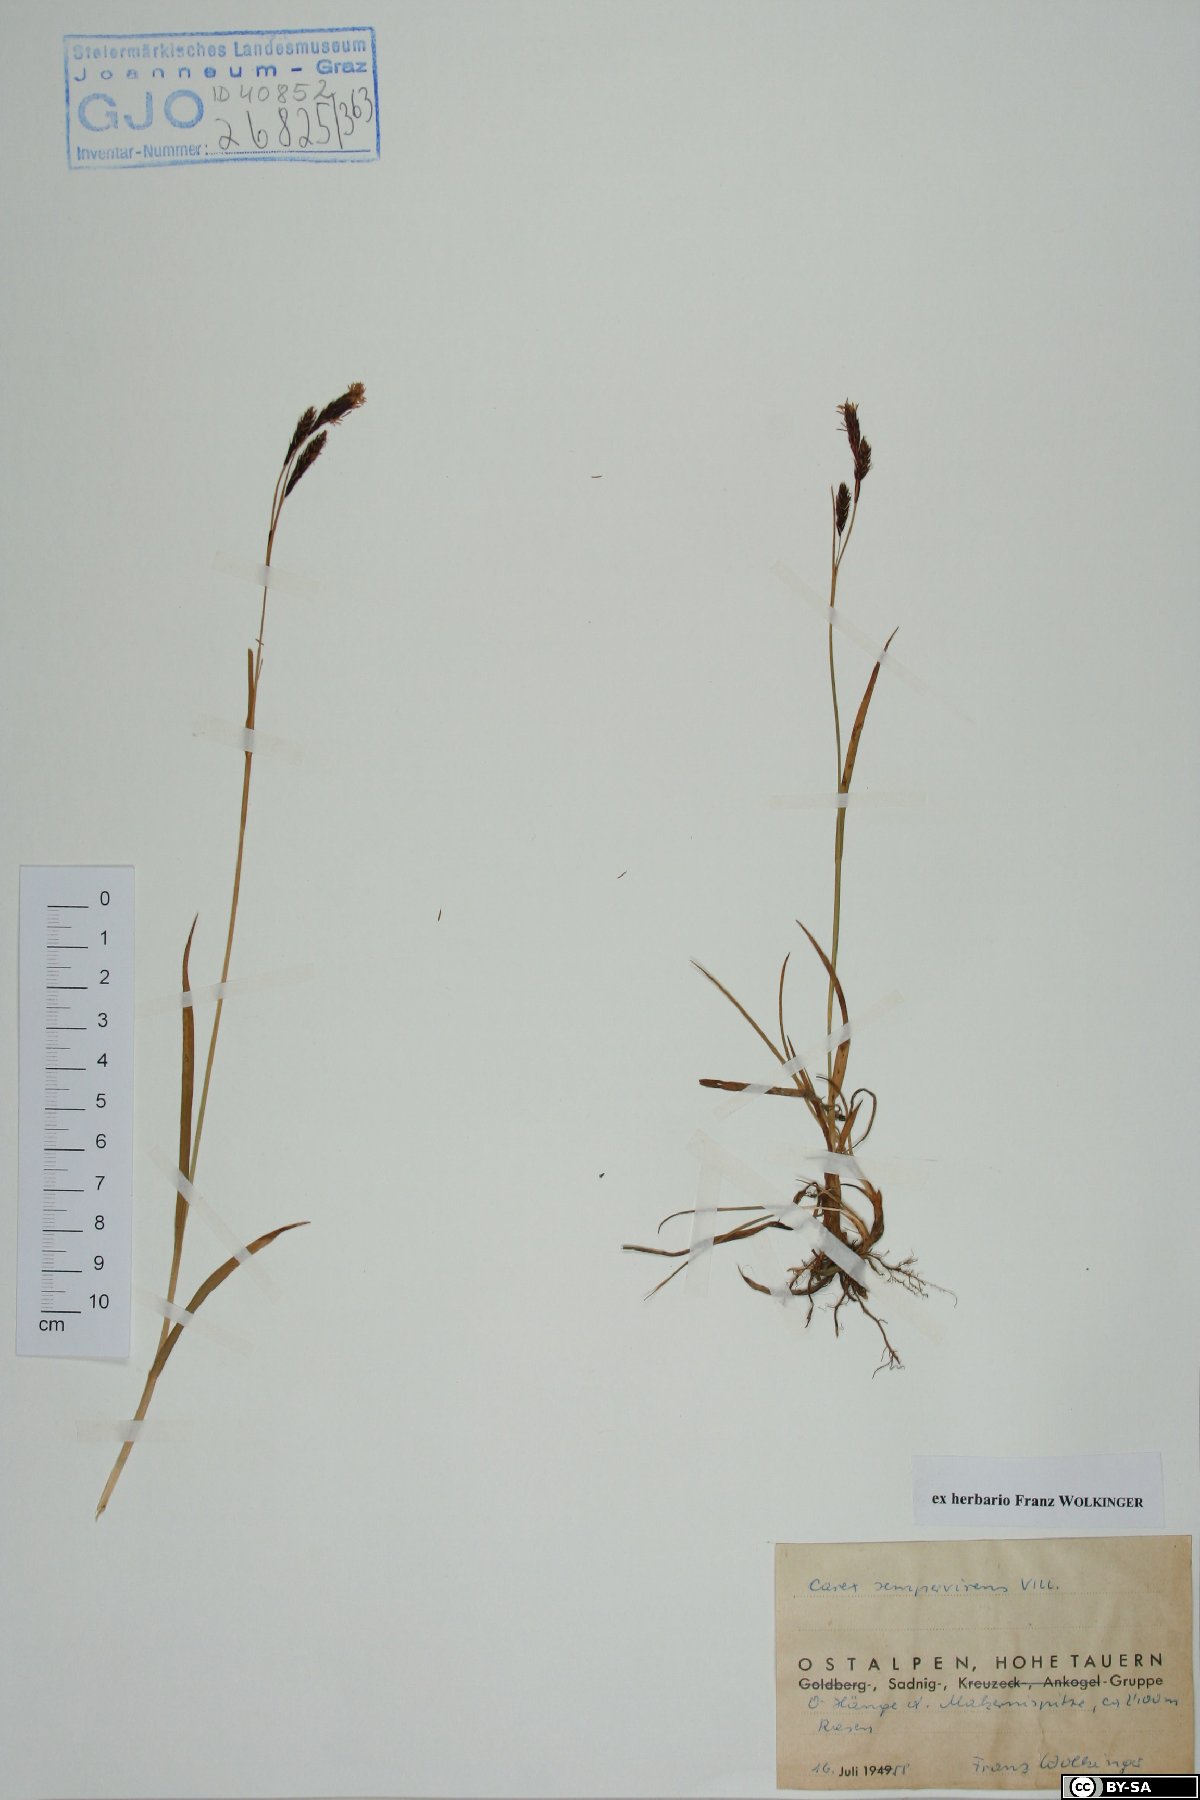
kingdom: Plantae
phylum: Tracheophyta
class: Liliopsida
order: Poales
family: Cyperaceae
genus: Carex
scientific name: Carex sempervirens
